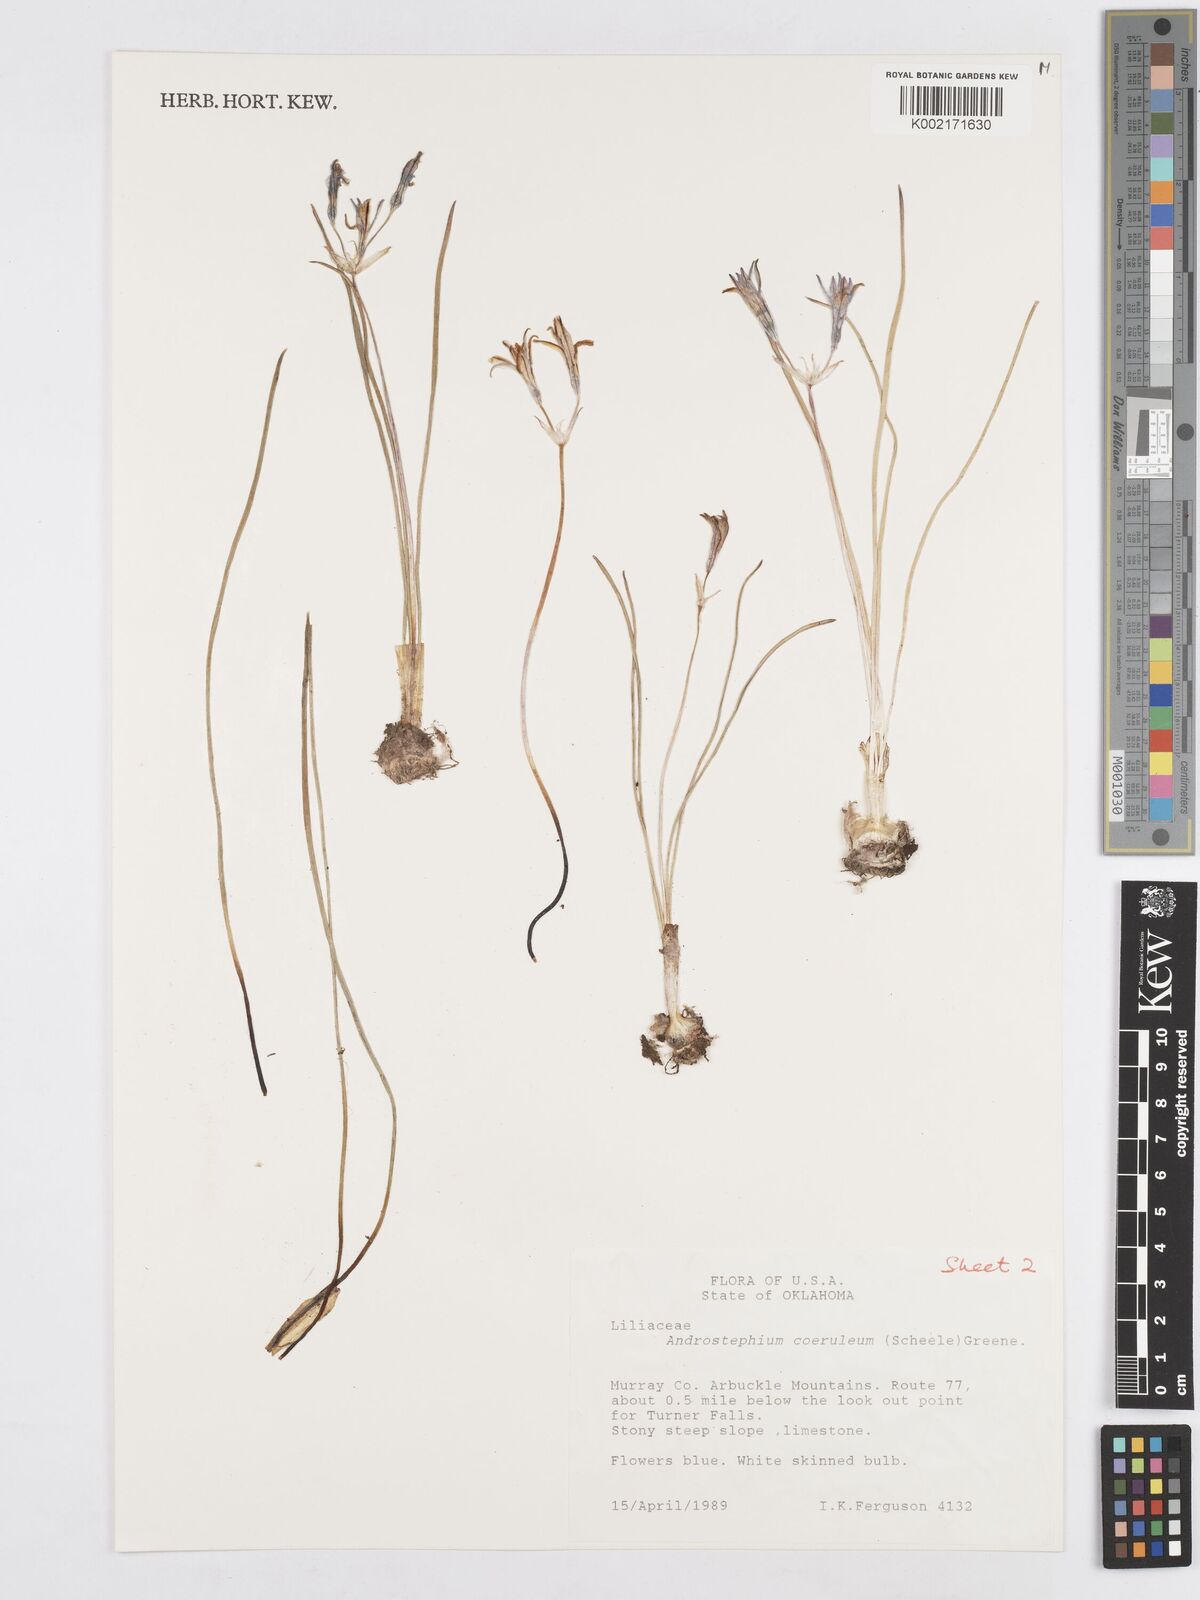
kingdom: Plantae
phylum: Tracheophyta
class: Liliopsida
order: Asparagales
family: Asparagaceae
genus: Androstephium
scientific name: Androstephium coeruleum
